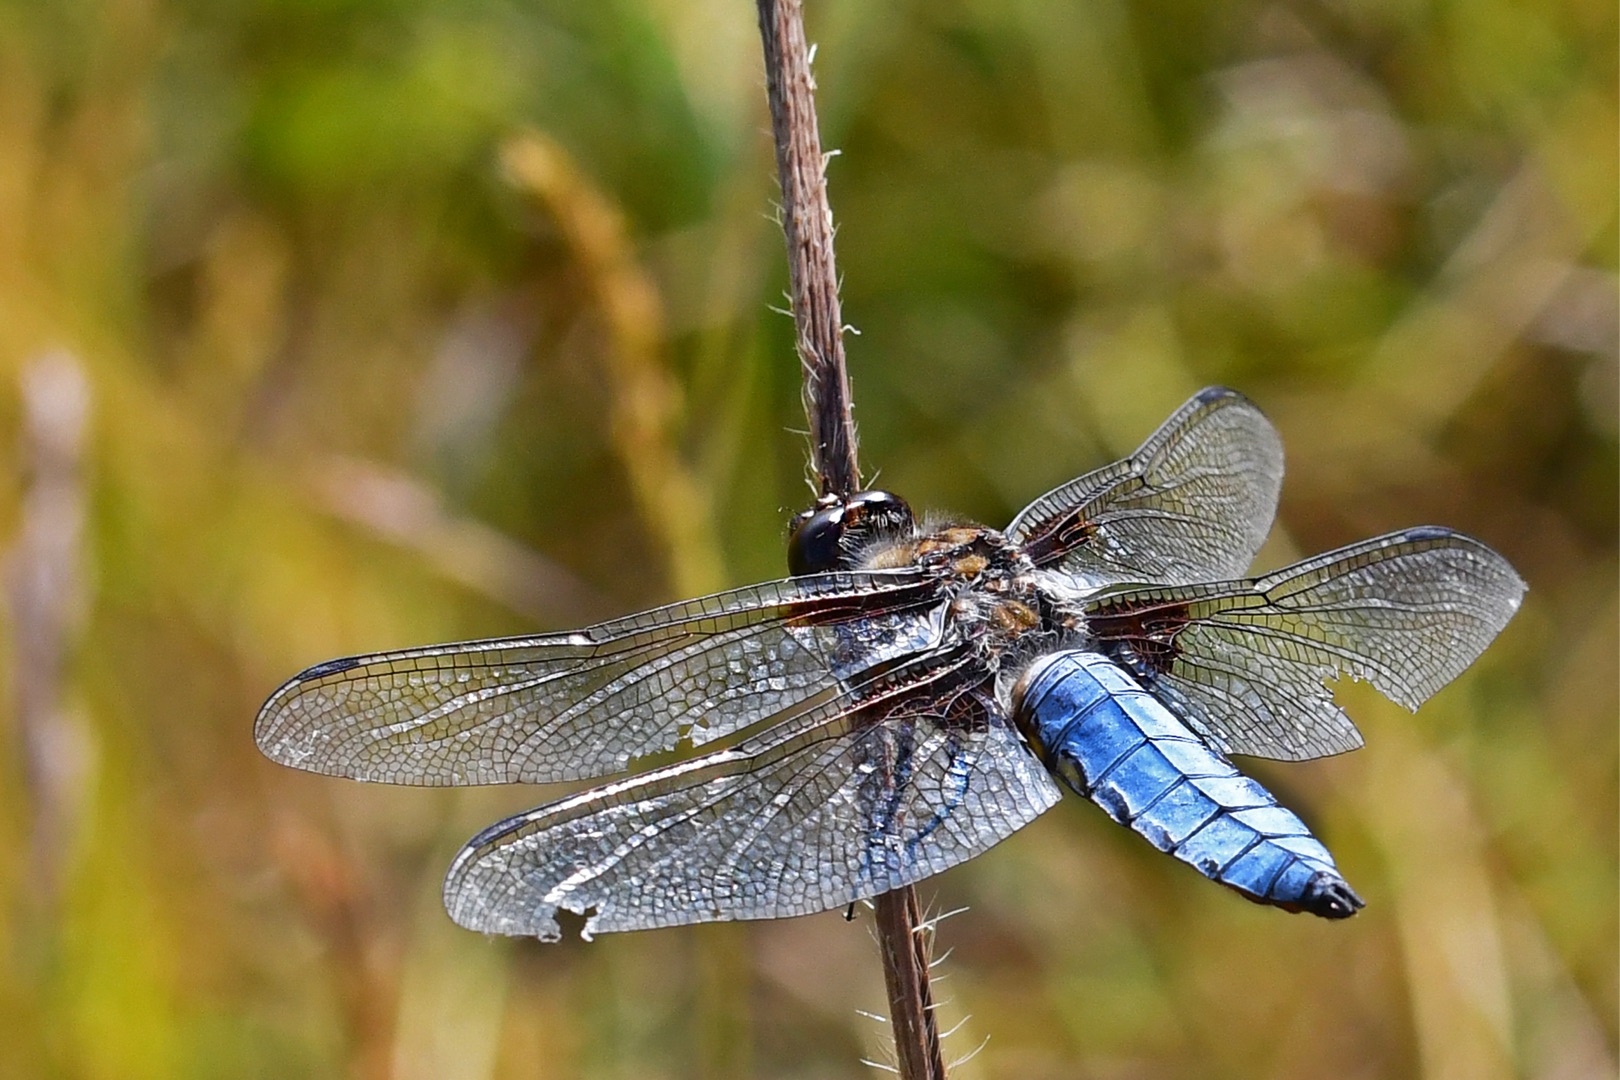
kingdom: Animalia
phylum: Arthropoda
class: Insecta
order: Odonata
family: Libellulidae
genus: Libellula
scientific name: Libellula depressa
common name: Blå libel
